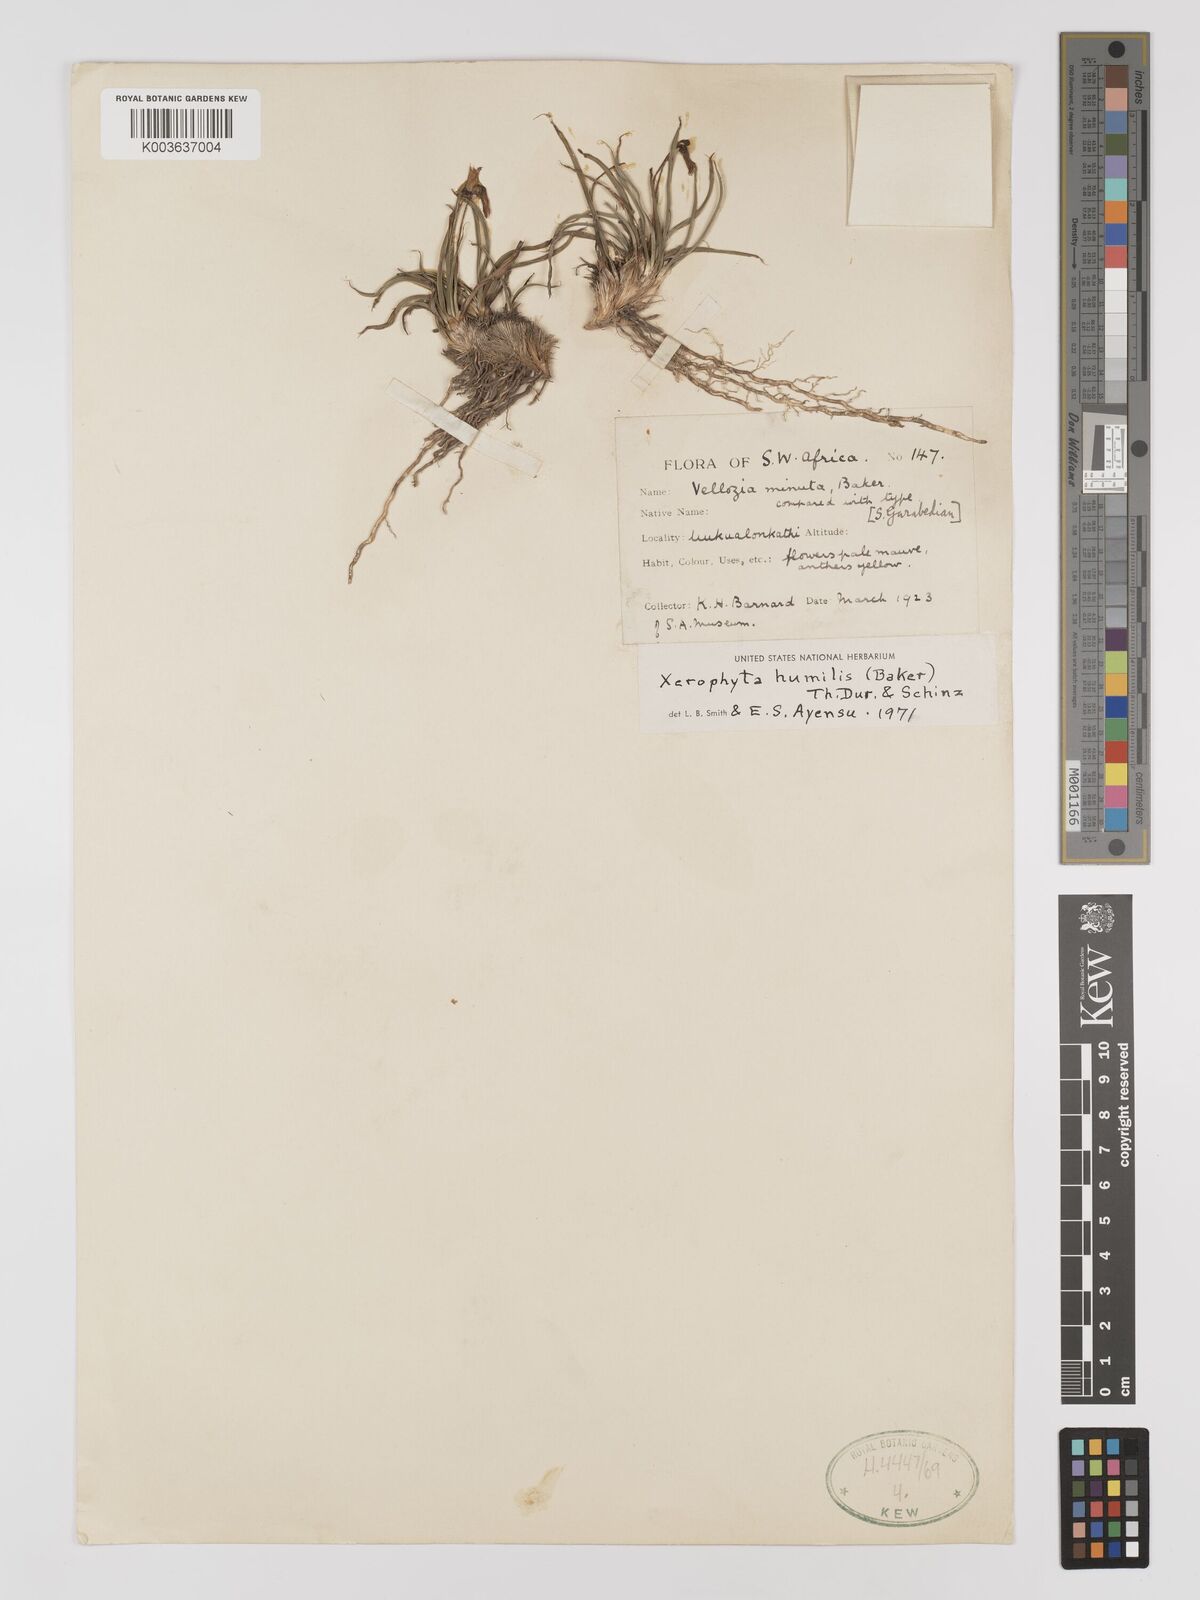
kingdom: Plantae
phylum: Tracheophyta
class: Liliopsida
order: Pandanales
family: Velloziaceae
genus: Xerophyta
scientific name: Xerophyta humilis
